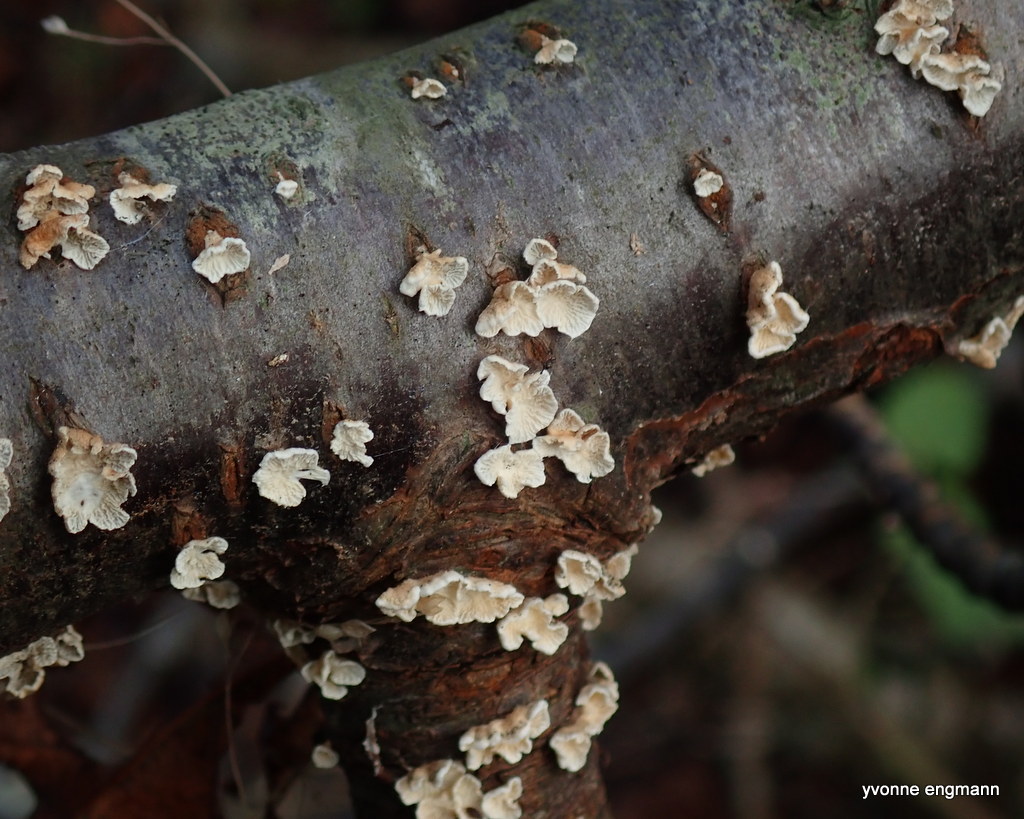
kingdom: Fungi
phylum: Basidiomycota
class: Agaricomycetes
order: Amylocorticiales
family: Amylocorticiaceae
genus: Plicaturopsis
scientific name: Plicaturopsis crispa
